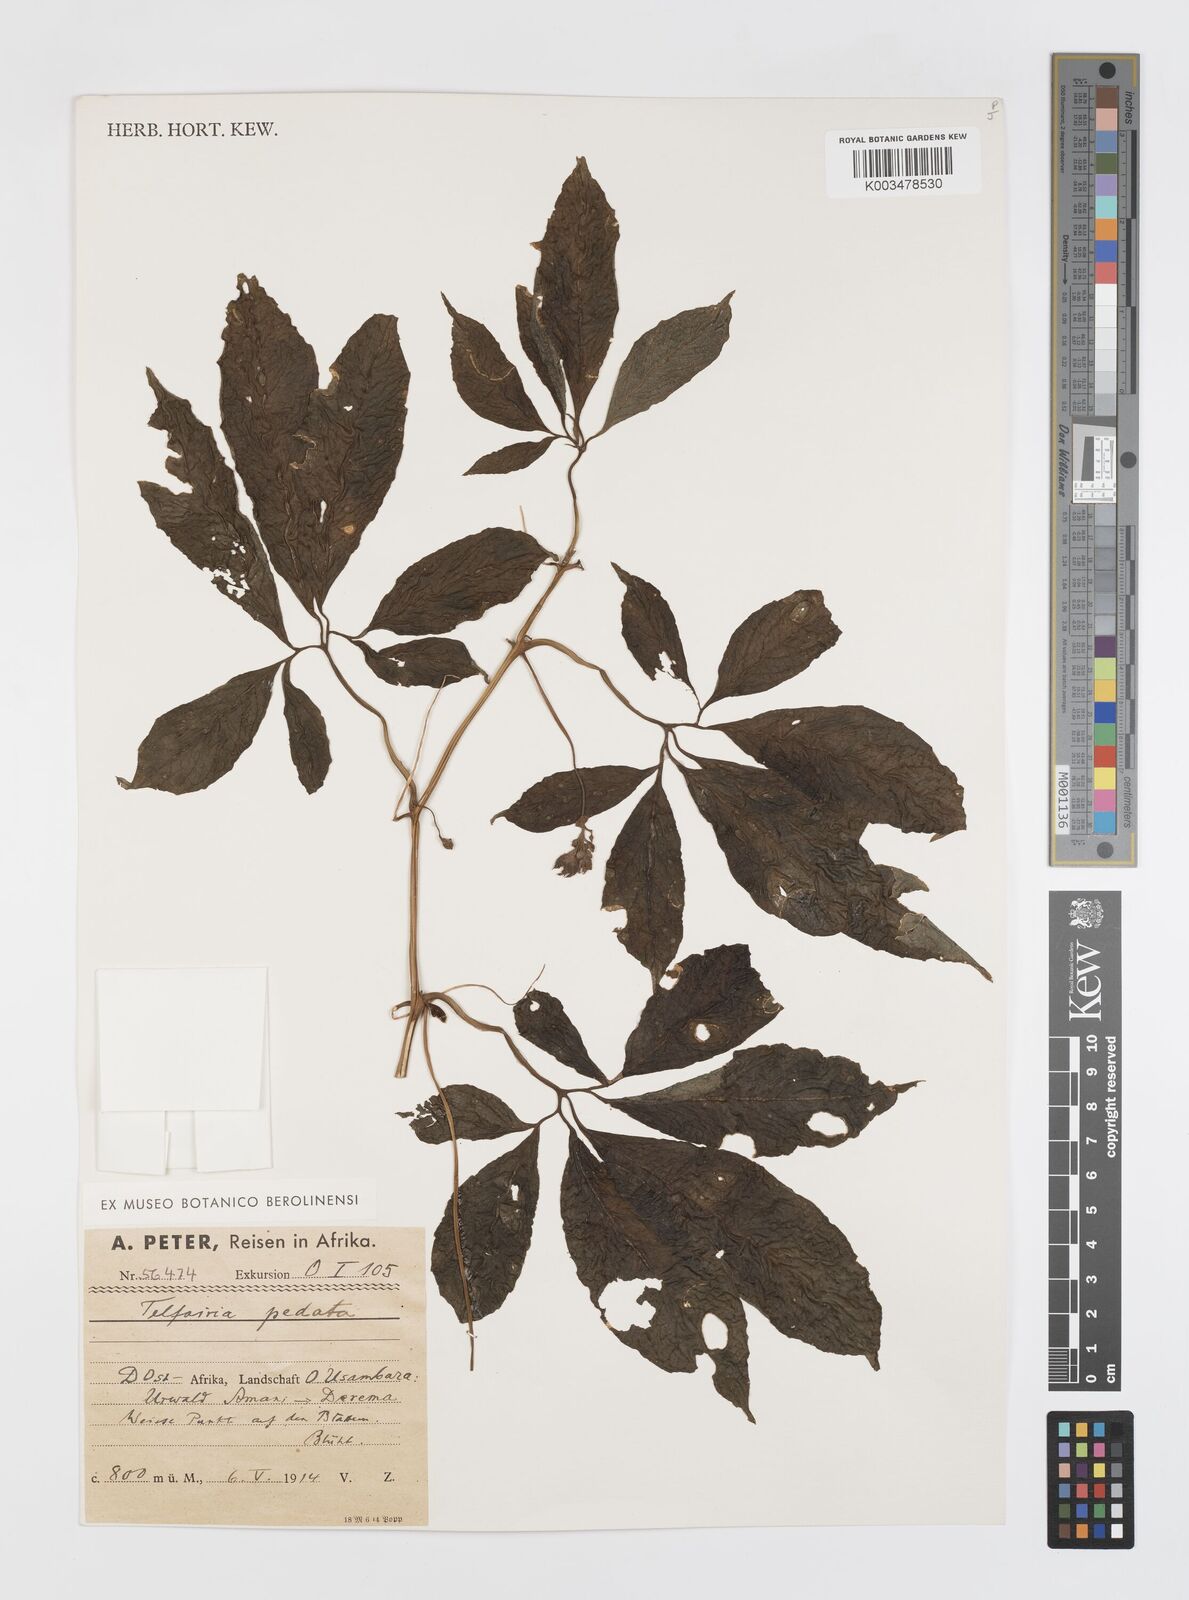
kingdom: Plantae
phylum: Tracheophyta
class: Magnoliopsida
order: Cucurbitales
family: Cucurbitaceae
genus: Telfairia
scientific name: Telfairia pedata
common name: Zanzibar oilvine
